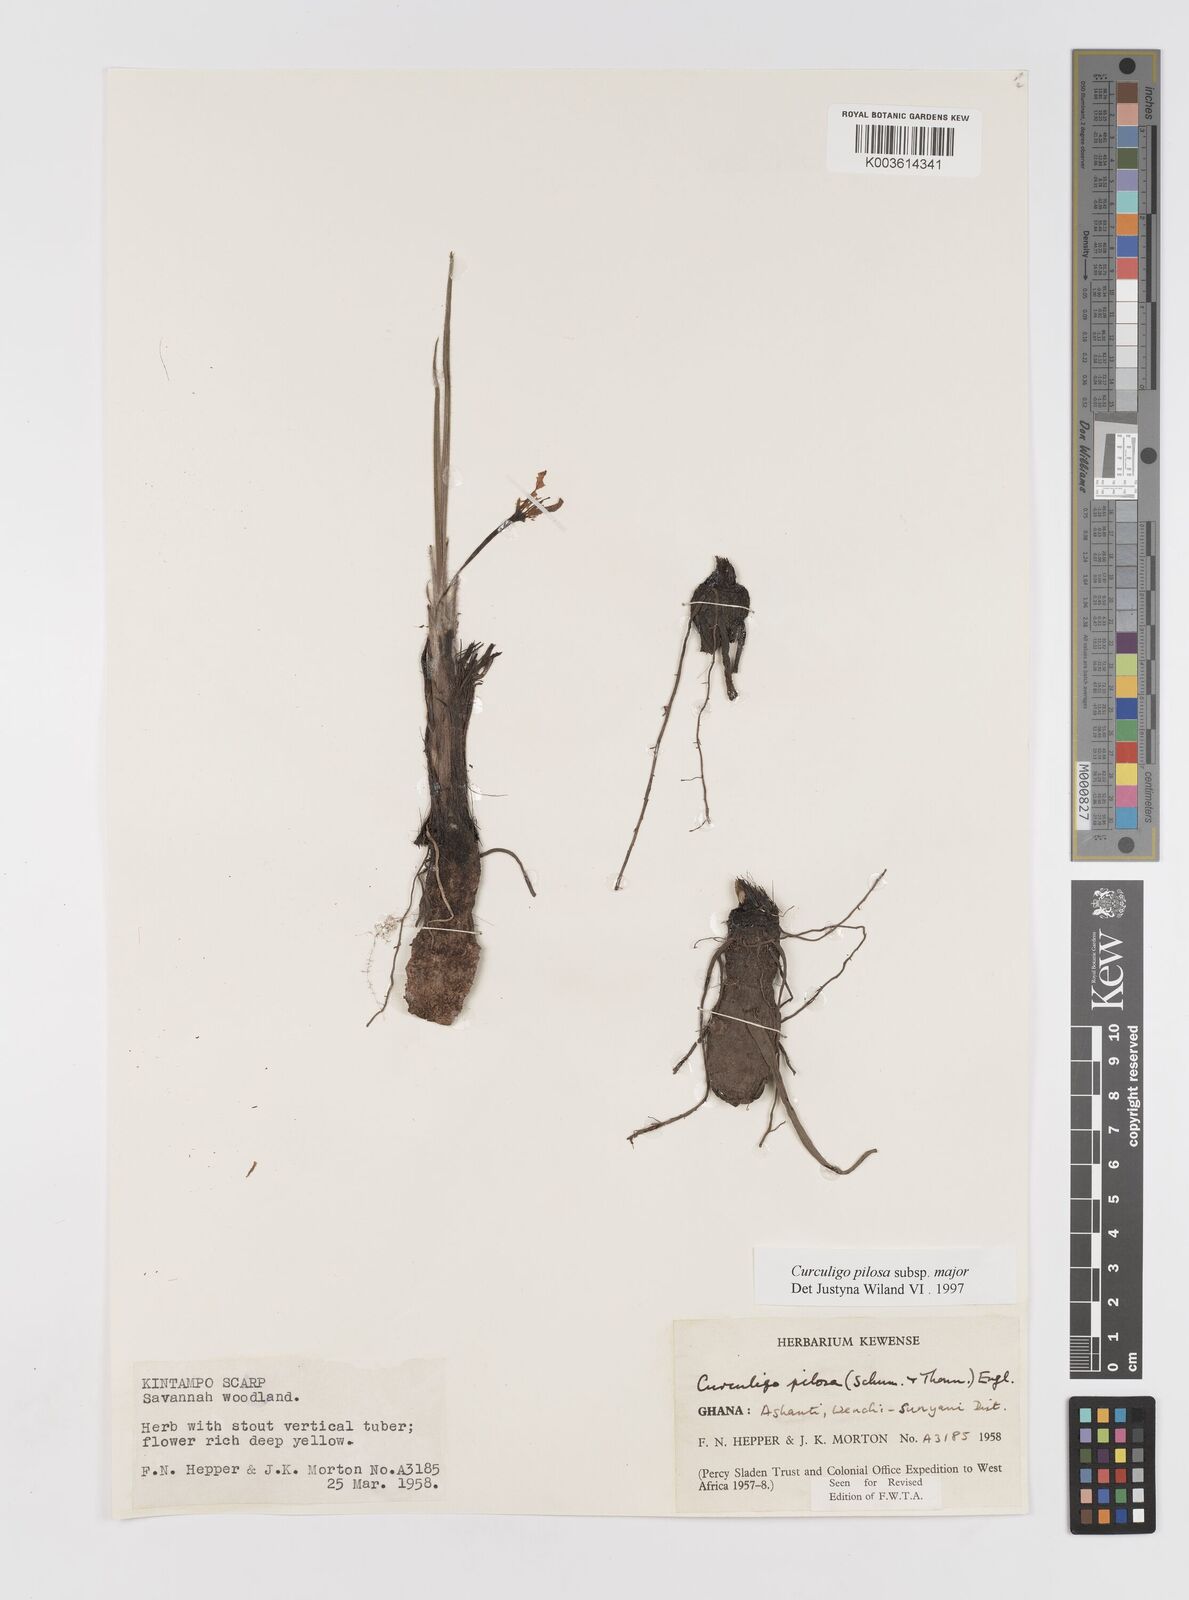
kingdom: Plantae
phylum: Tracheophyta
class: Liliopsida
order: Asparagales
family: Hypoxidaceae
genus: Curculigo
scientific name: Curculigo pilosa
